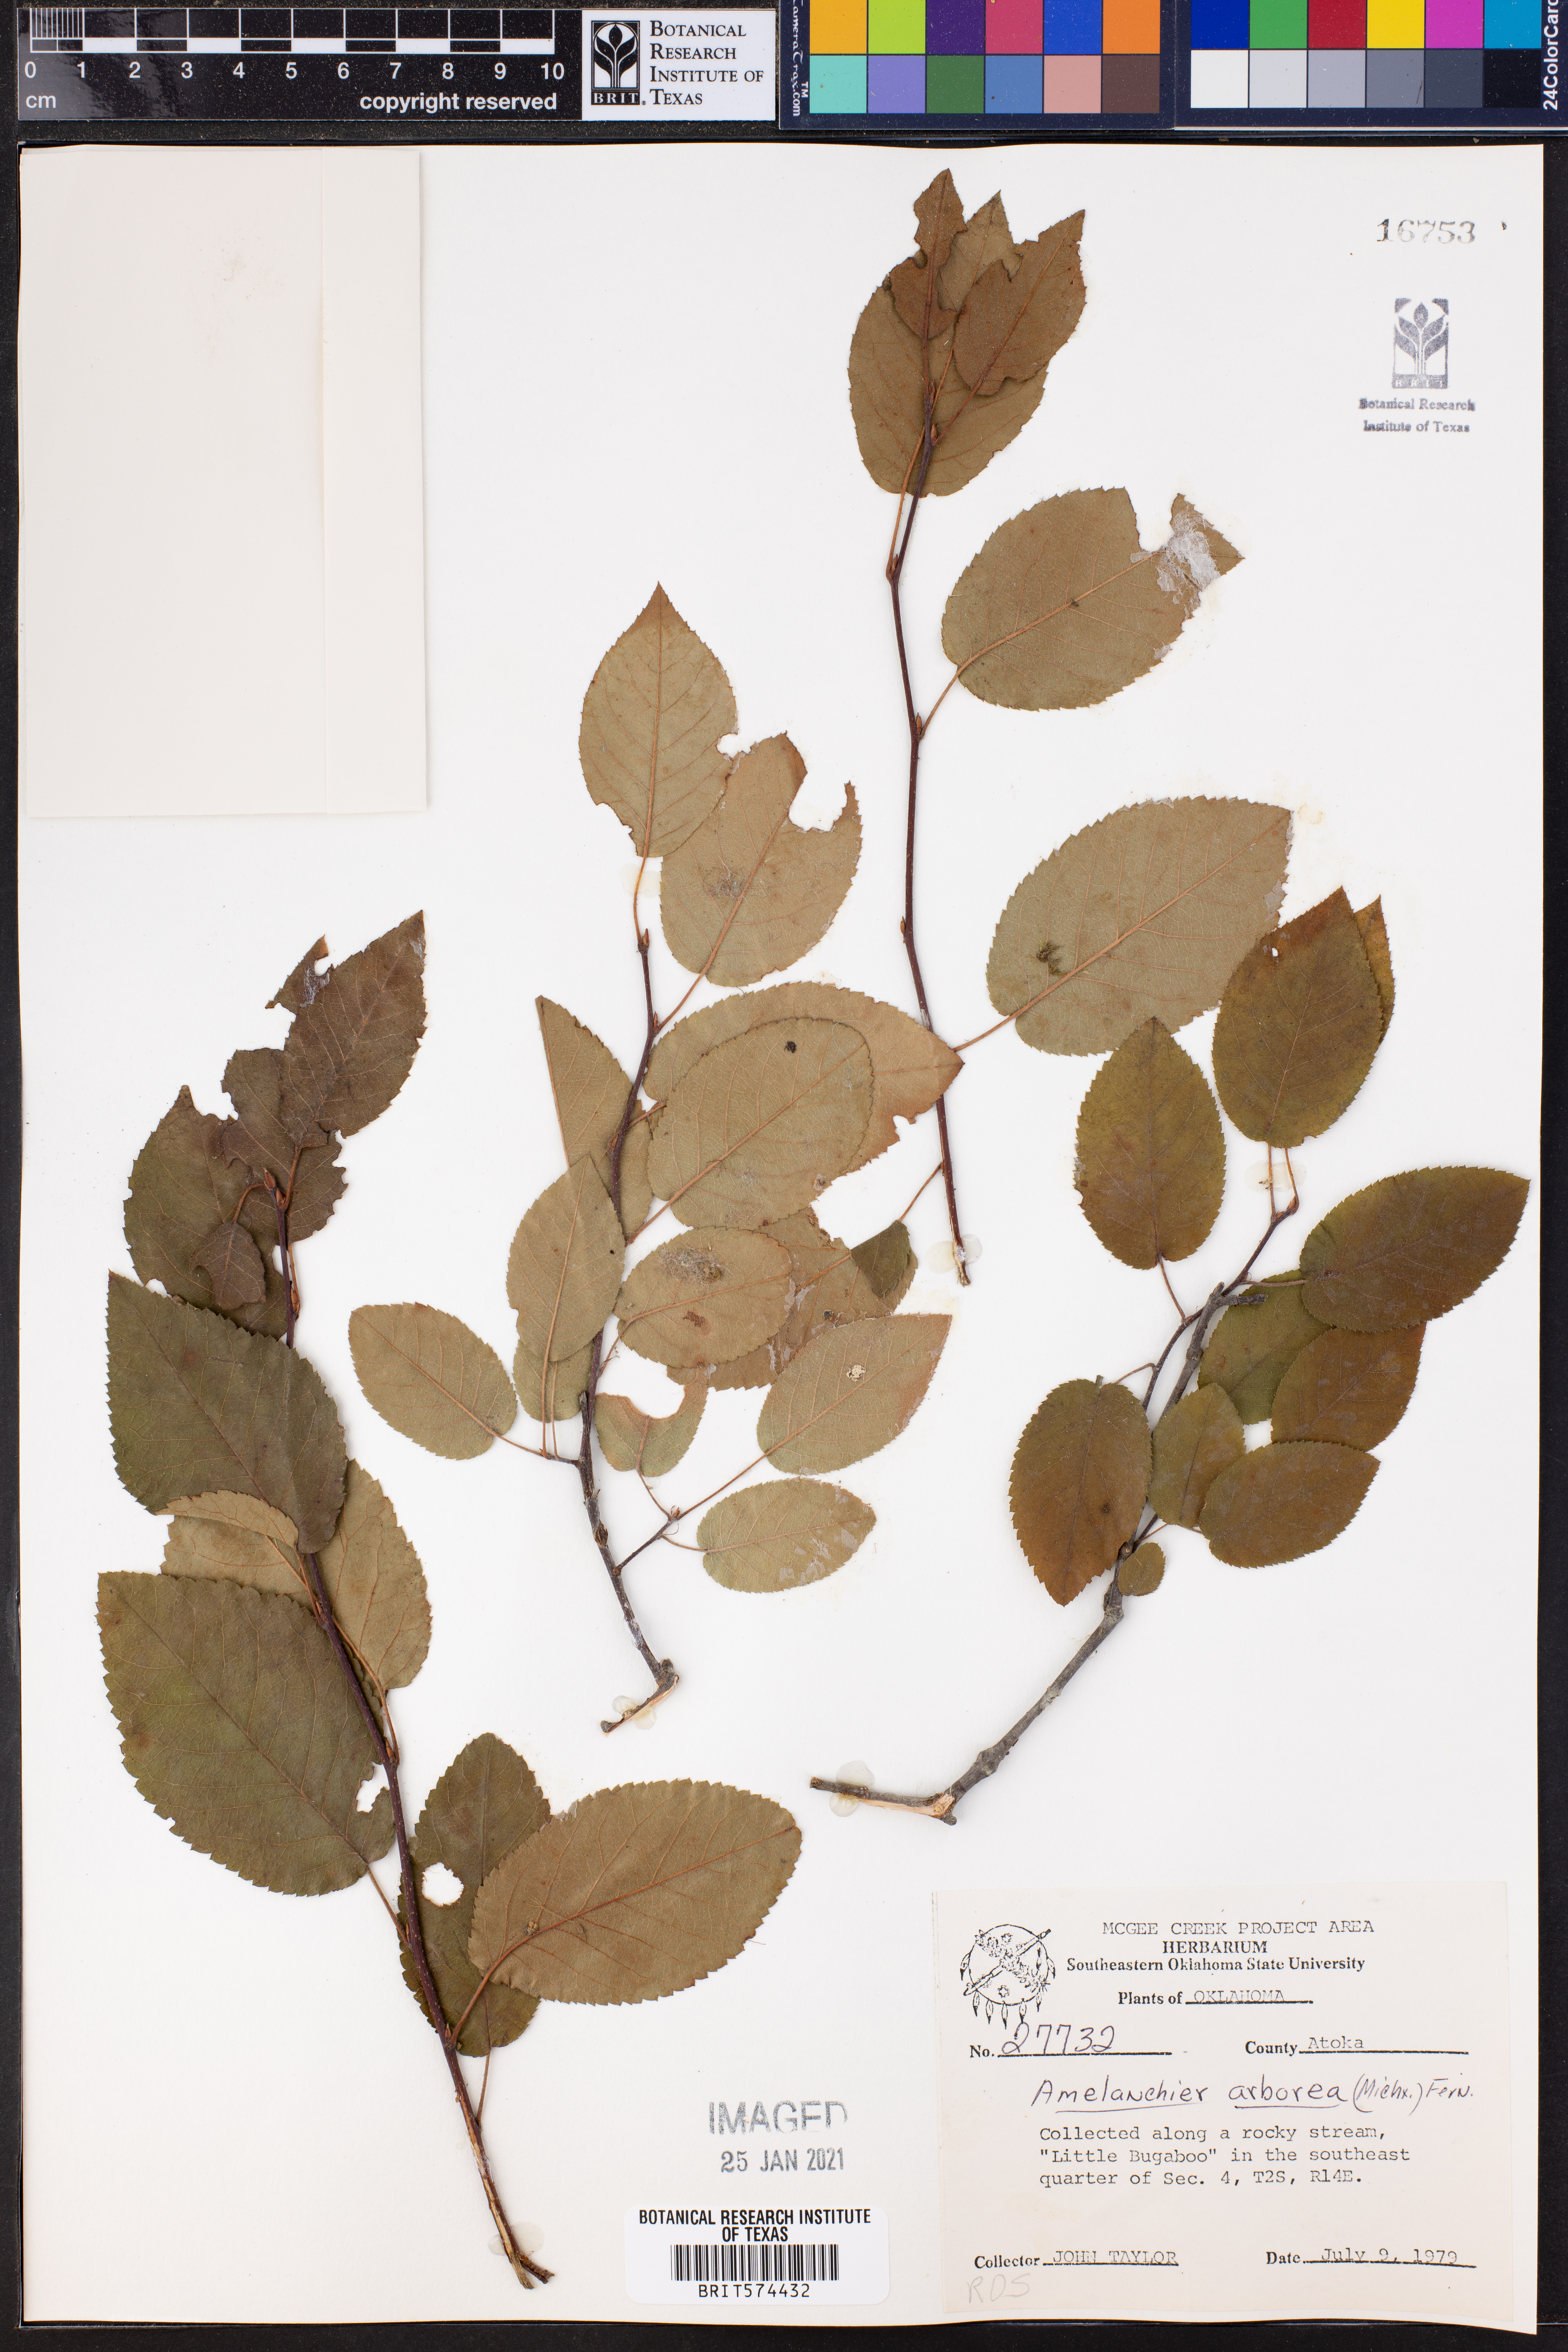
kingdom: Plantae
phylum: Tracheophyta
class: Magnoliopsida
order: Rosales
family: Rosaceae
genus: Amelanchier
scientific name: Amelanchier arborea
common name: Downy serviceberry
